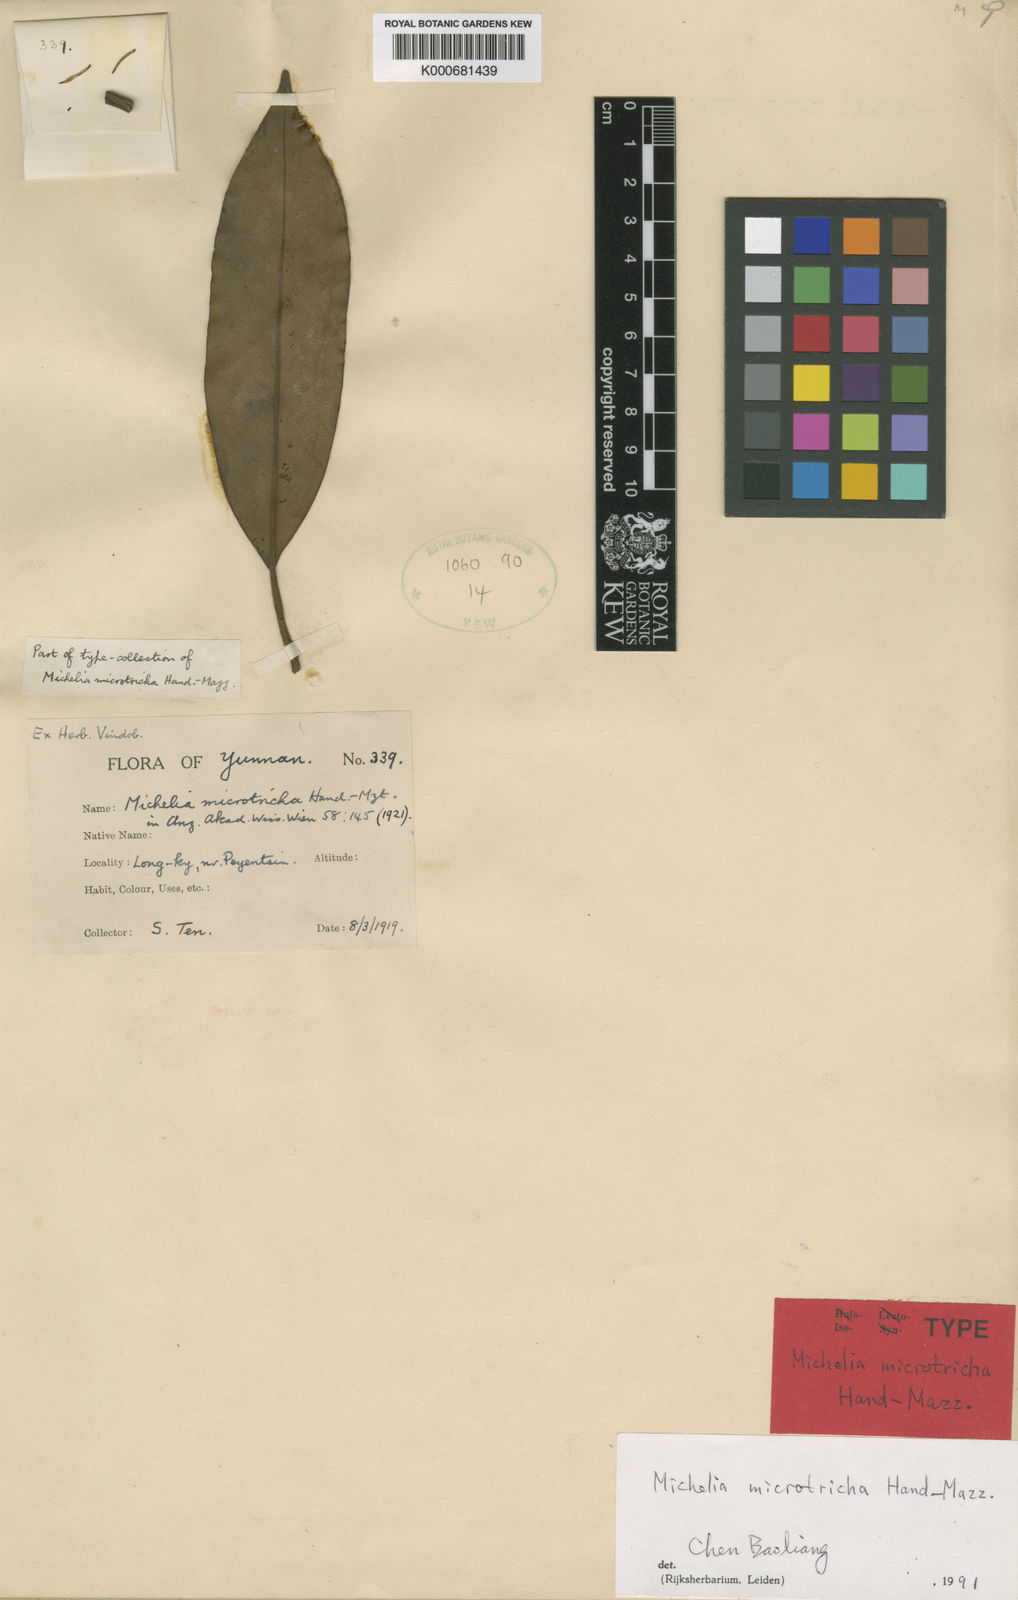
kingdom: Plantae
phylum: Tracheophyta
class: Magnoliopsida
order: Magnoliales
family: Magnoliaceae
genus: Magnolia
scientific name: Magnolia floribunda
